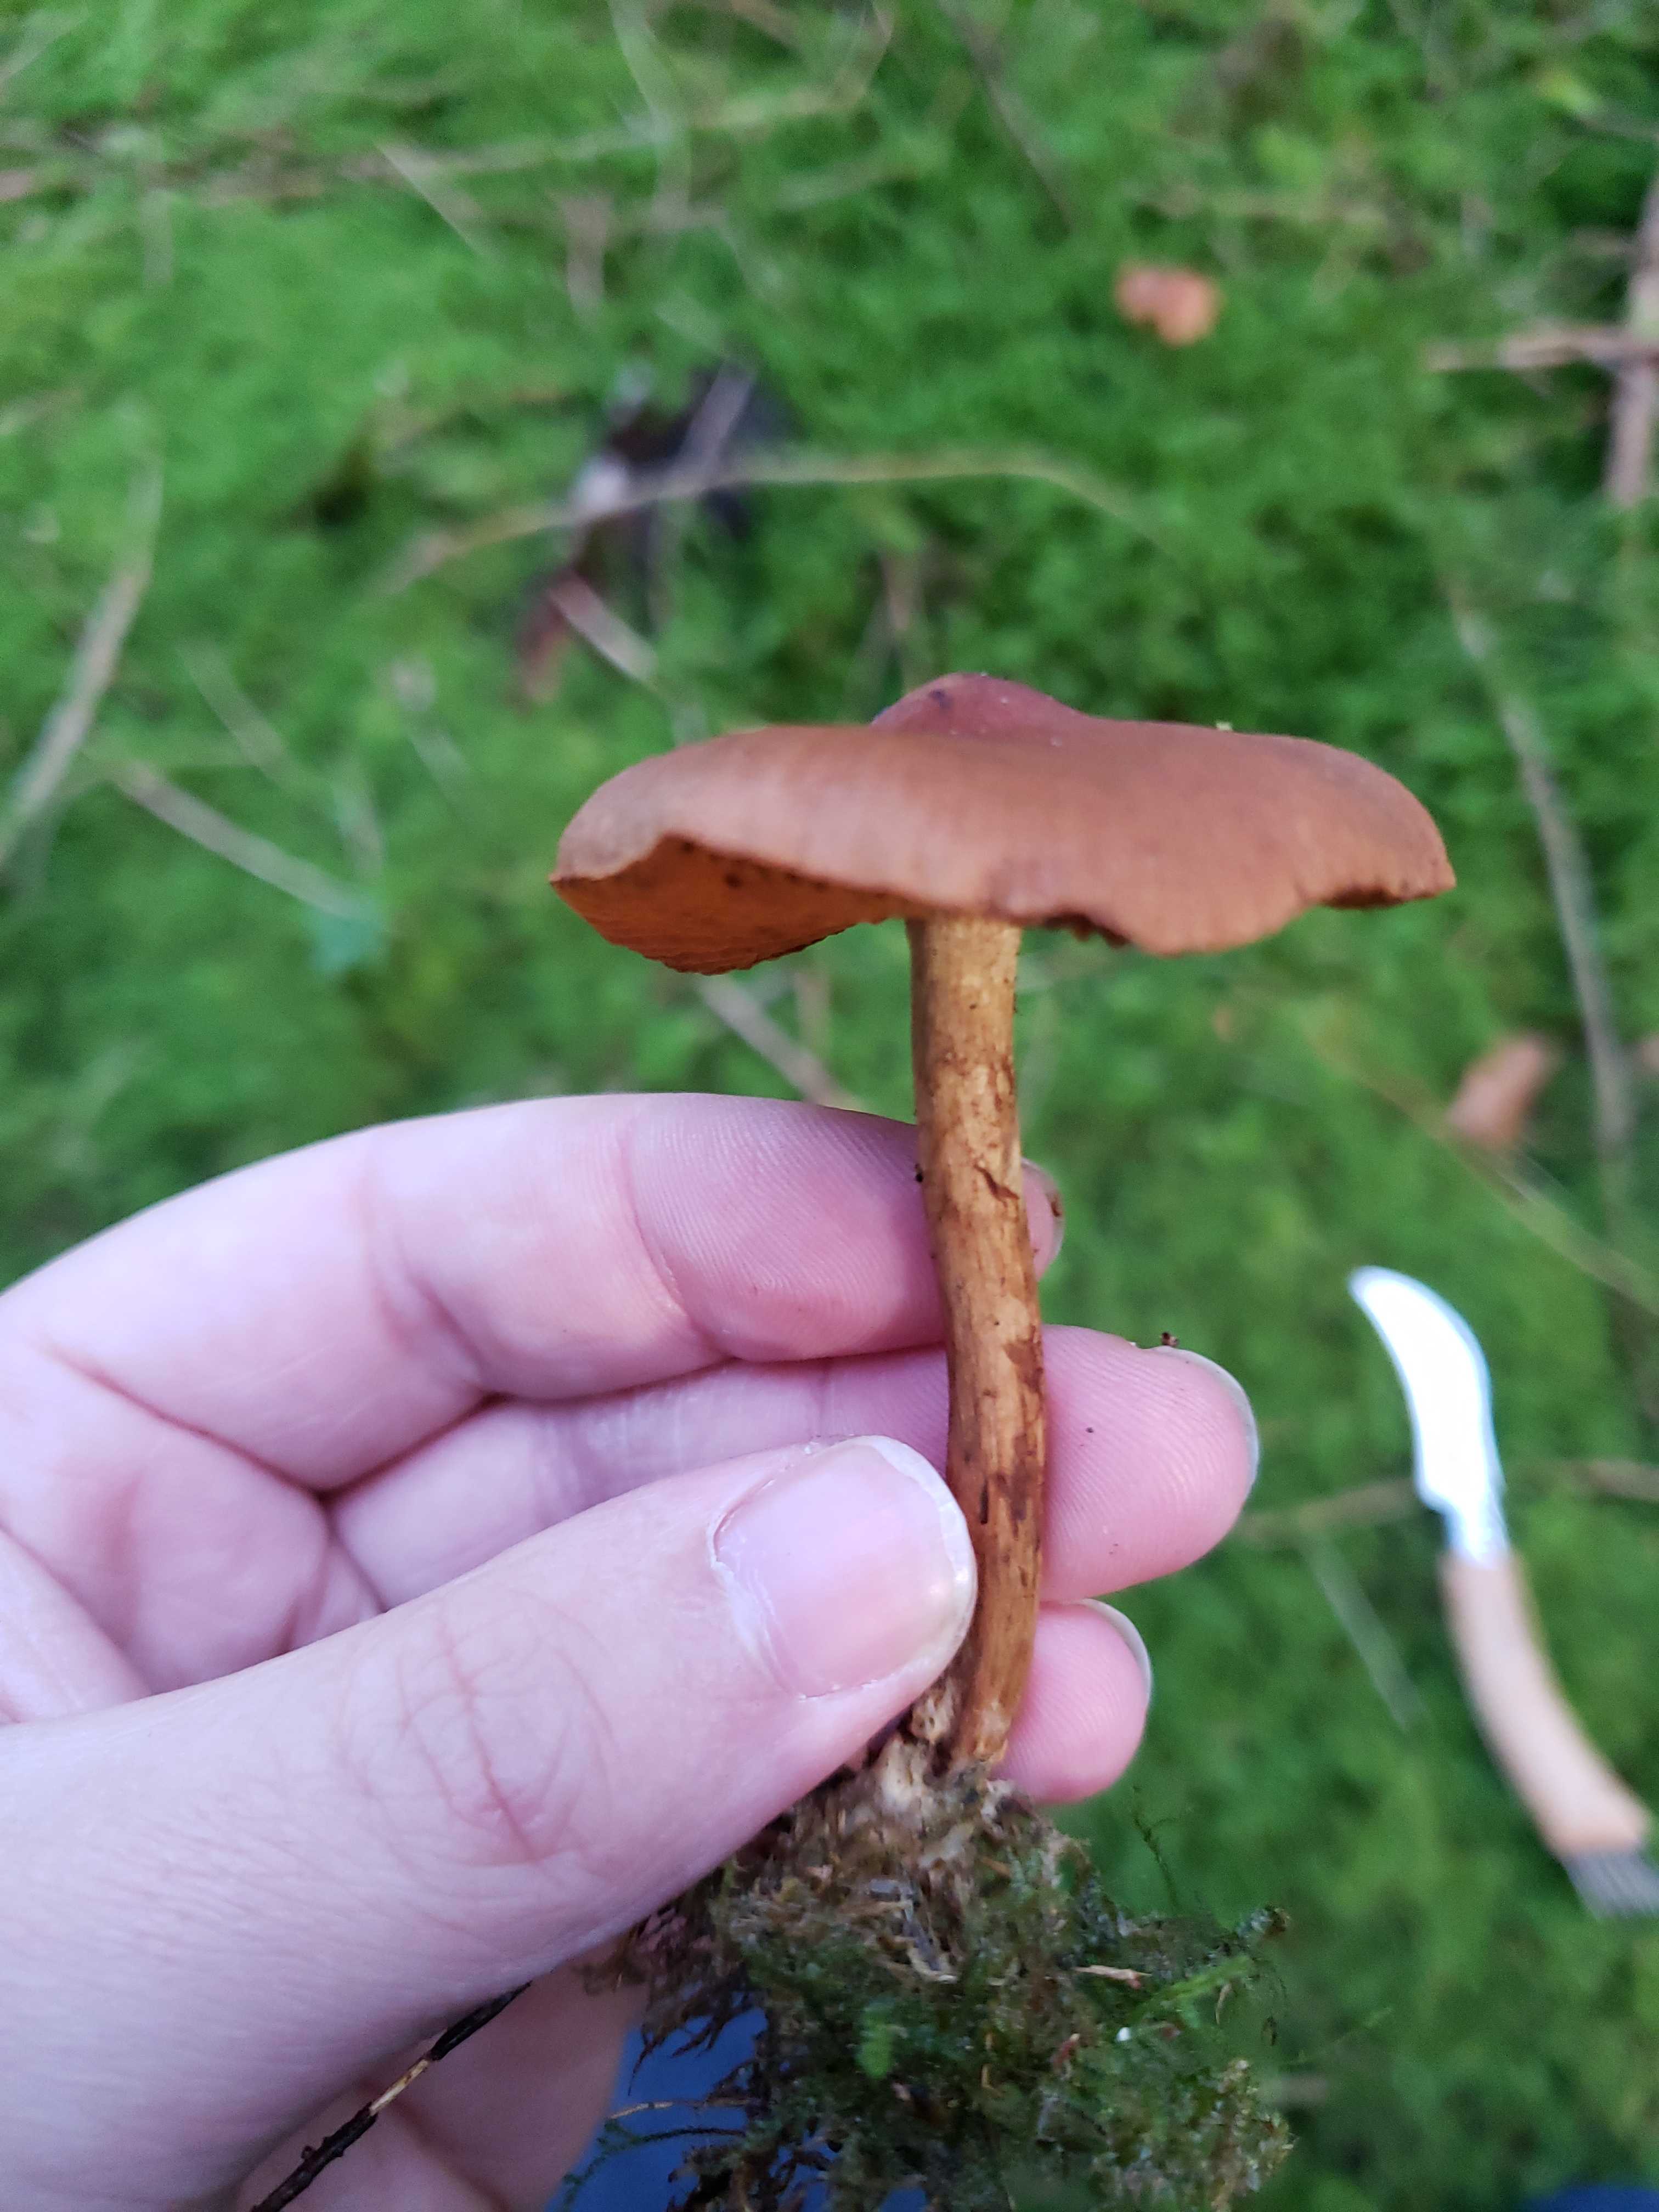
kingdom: Fungi
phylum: Basidiomycota
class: Agaricomycetes
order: Agaricales
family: Cortinariaceae
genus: Cortinarius
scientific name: Cortinarius
